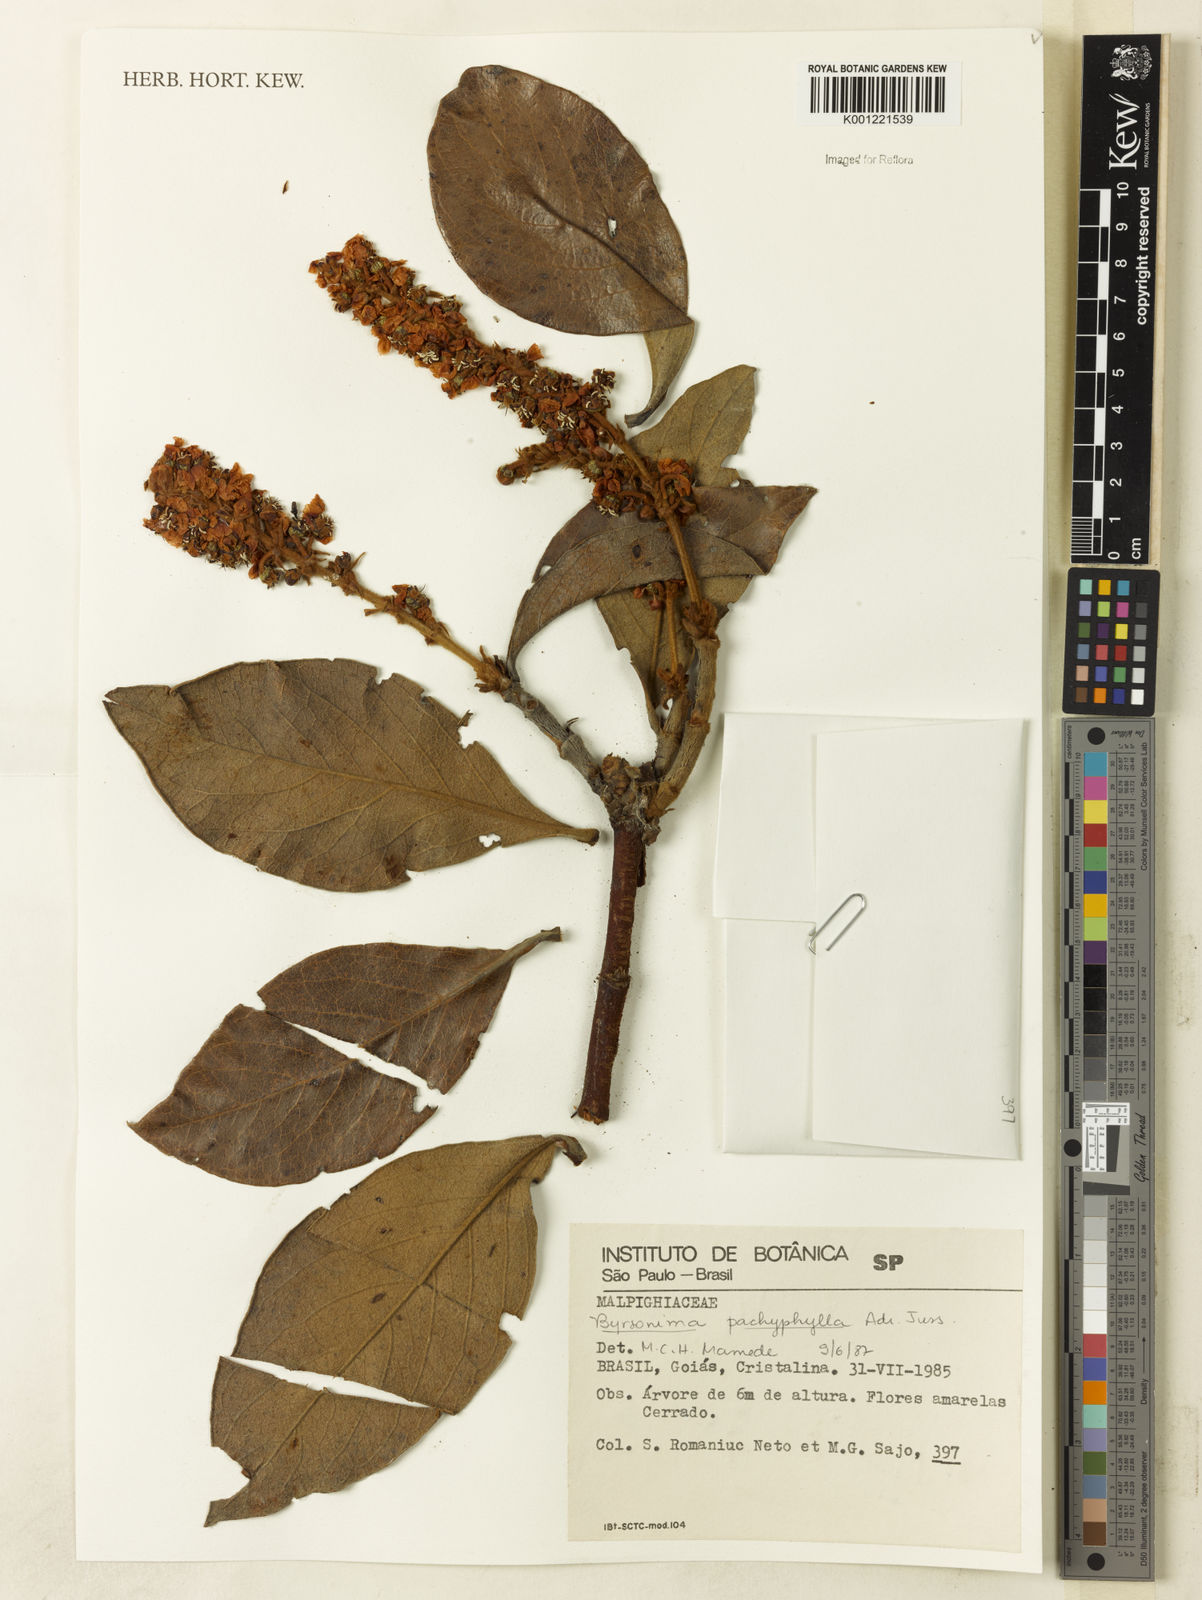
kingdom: Plantae
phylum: Tracheophyta
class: Magnoliopsida
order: Malpighiales
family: Malpighiaceae
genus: Byrsonima
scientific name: Byrsonima pachyphylla
